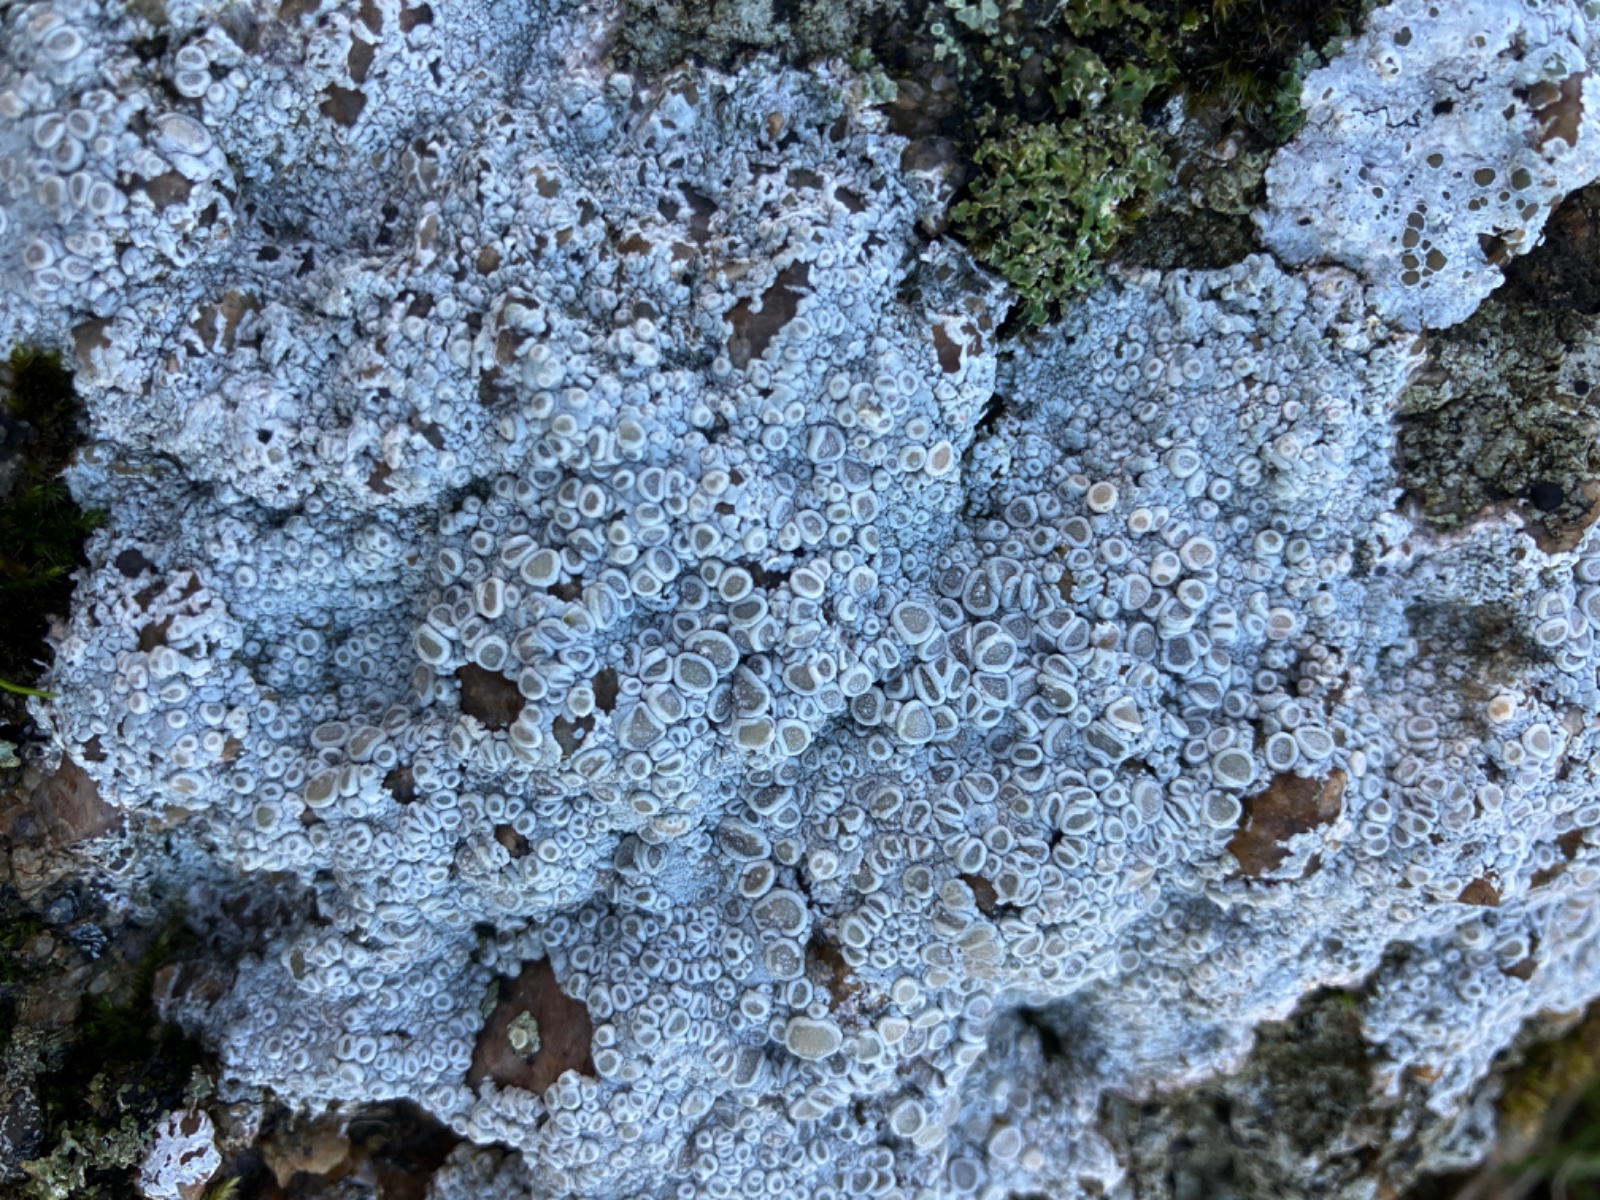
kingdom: Fungi
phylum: Ascomycota
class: Lecanoromycetes
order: Pertusariales
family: Ochrolechiaceae
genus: Ochrolechia
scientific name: Ochrolechia
